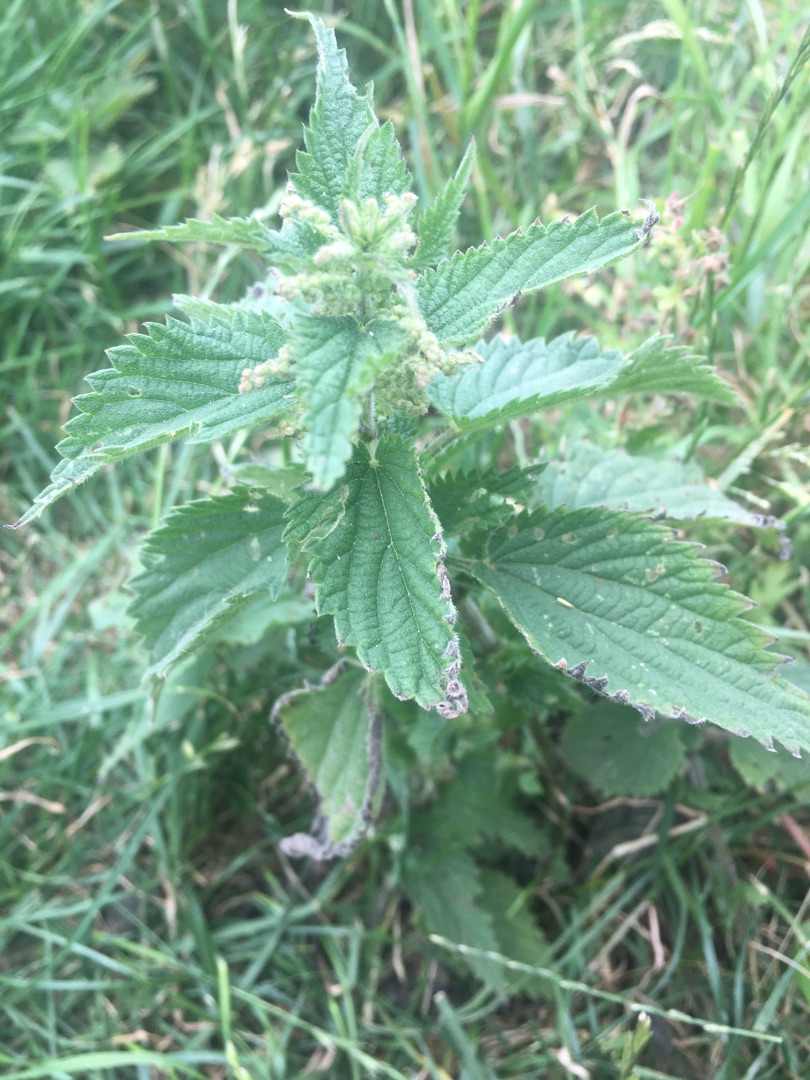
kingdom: Plantae
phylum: Tracheophyta
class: Magnoliopsida
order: Rosales
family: Urticaceae
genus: Urtica
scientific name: Urtica dioica
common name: Stor nælde
